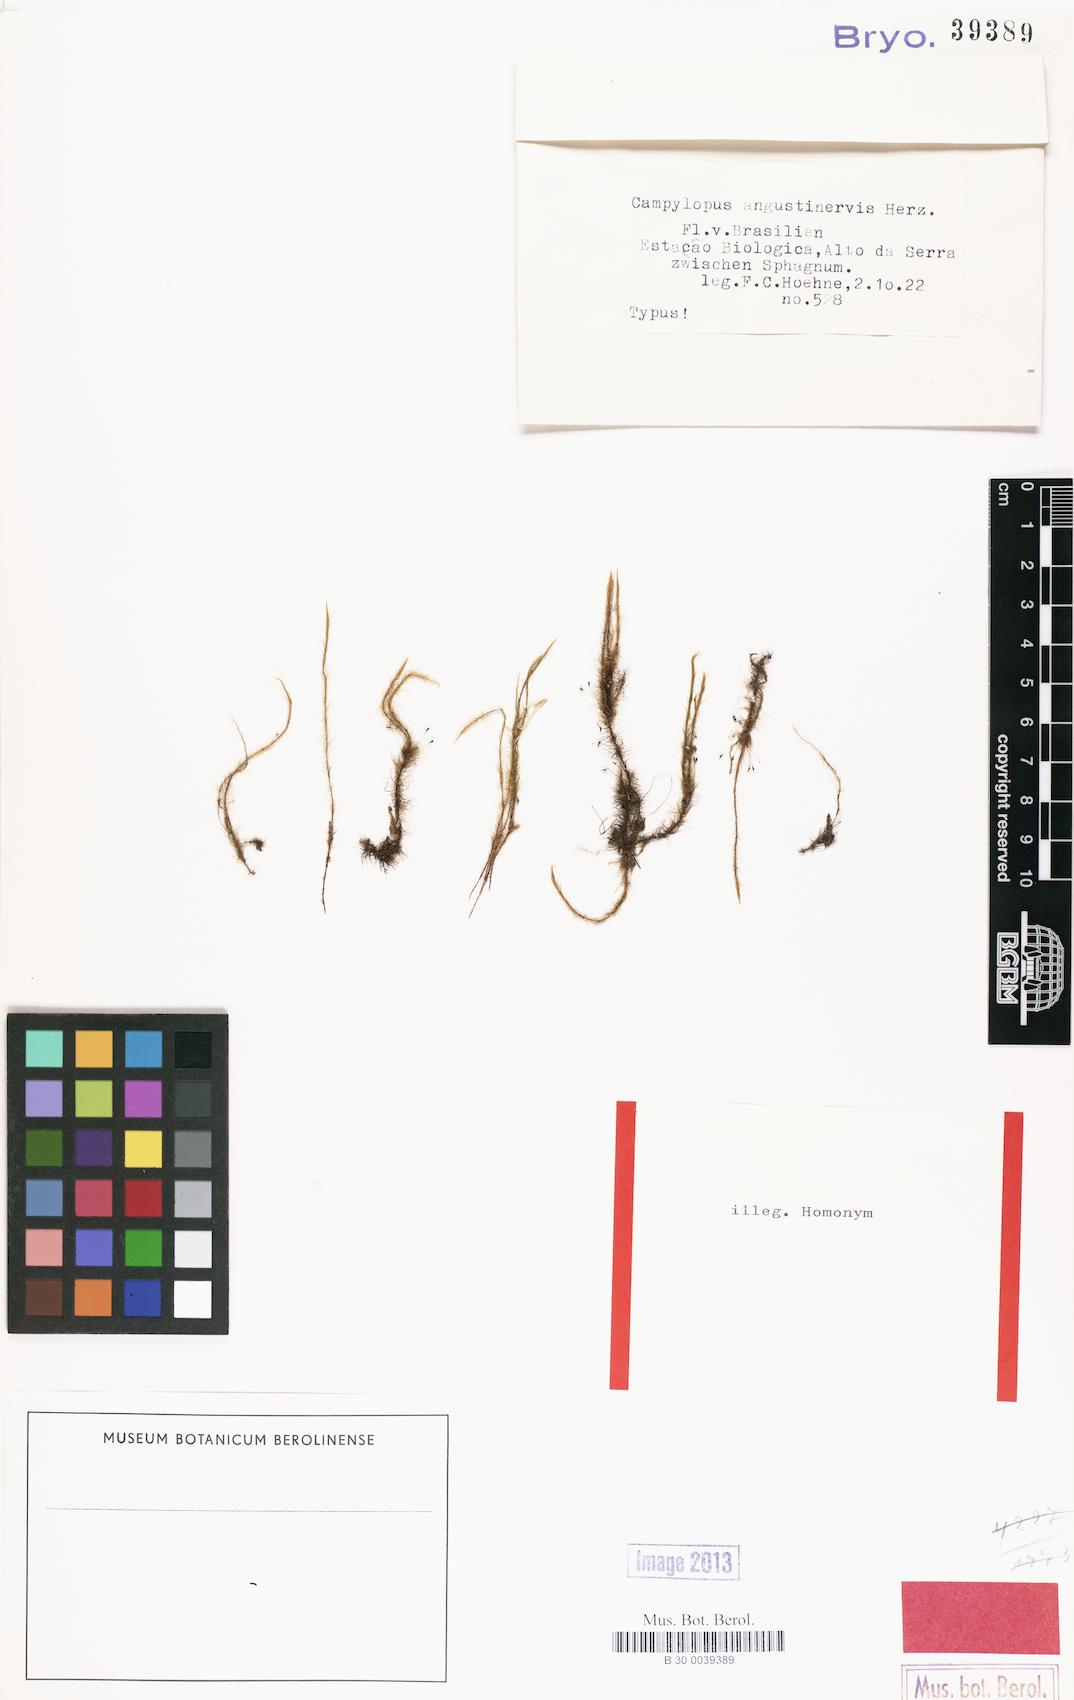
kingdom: Plantae
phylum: Bryophyta
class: Bryopsida
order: Dicranales
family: Leucobryaceae
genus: Campylopus
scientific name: Campylopus perpusillus
